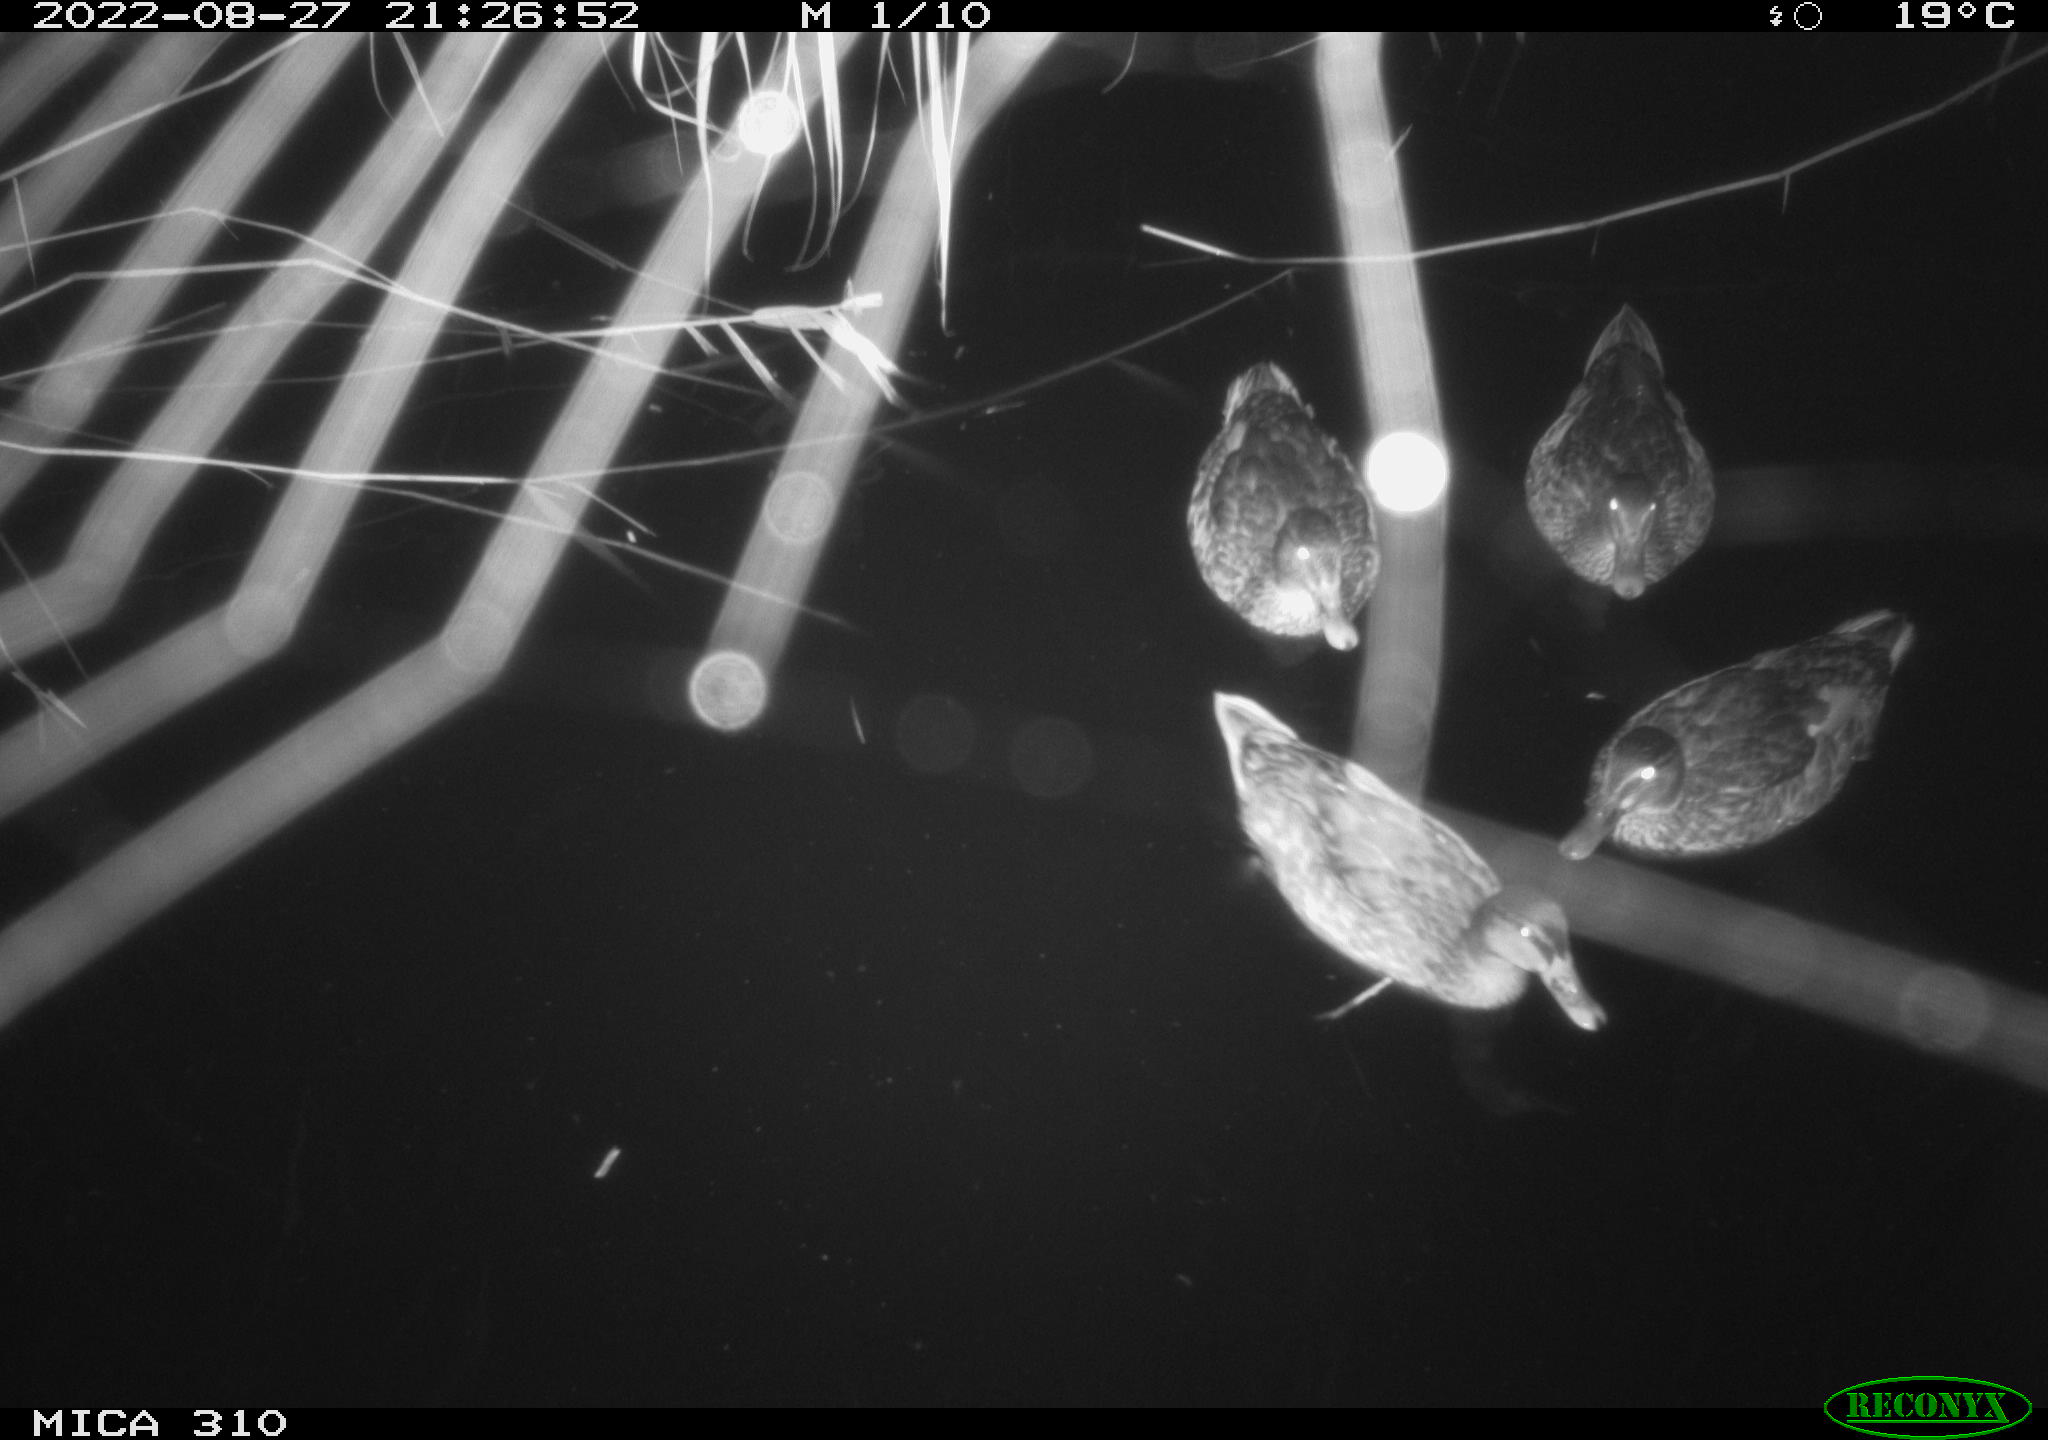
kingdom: Animalia
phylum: Chordata
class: Aves
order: Anseriformes
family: Anatidae
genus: Anas
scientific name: Anas platyrhynchos
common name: Mallard
